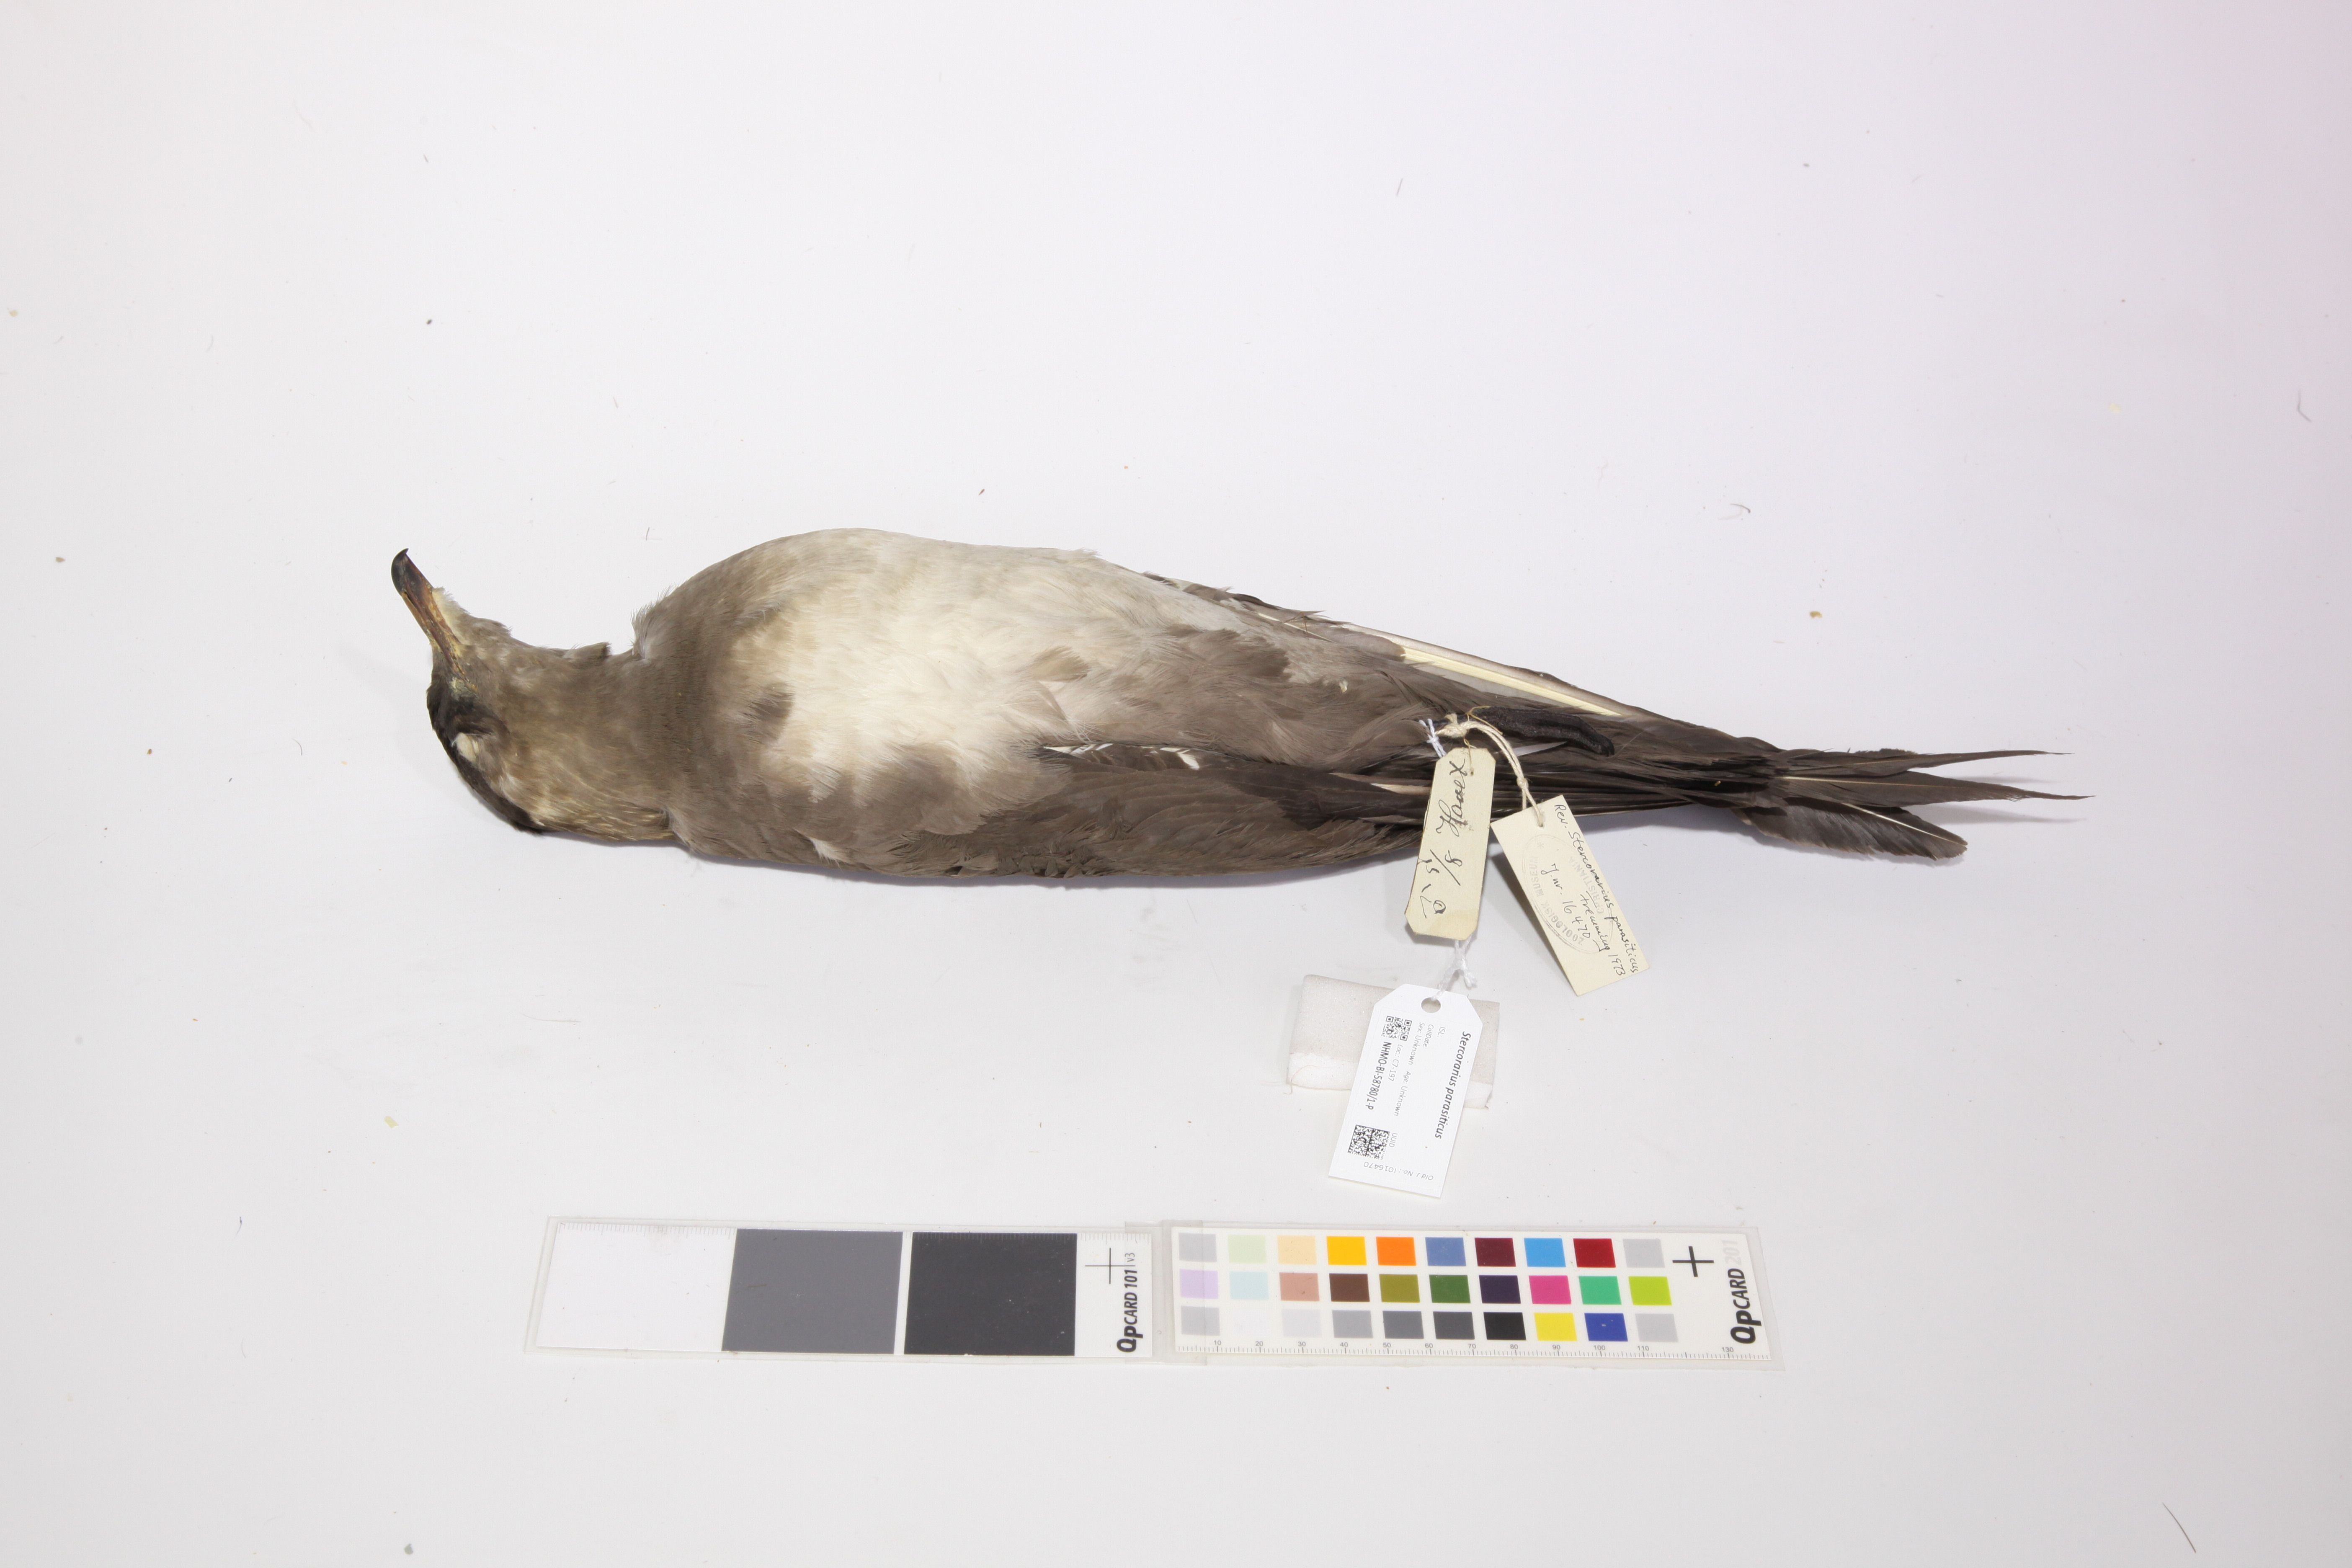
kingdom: Animalia
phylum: Chordata
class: Aves
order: Charadriiformes
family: Stercorariidae
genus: Stercorarius
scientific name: Stercorarius parasiticus
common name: Parasitic jaeger
